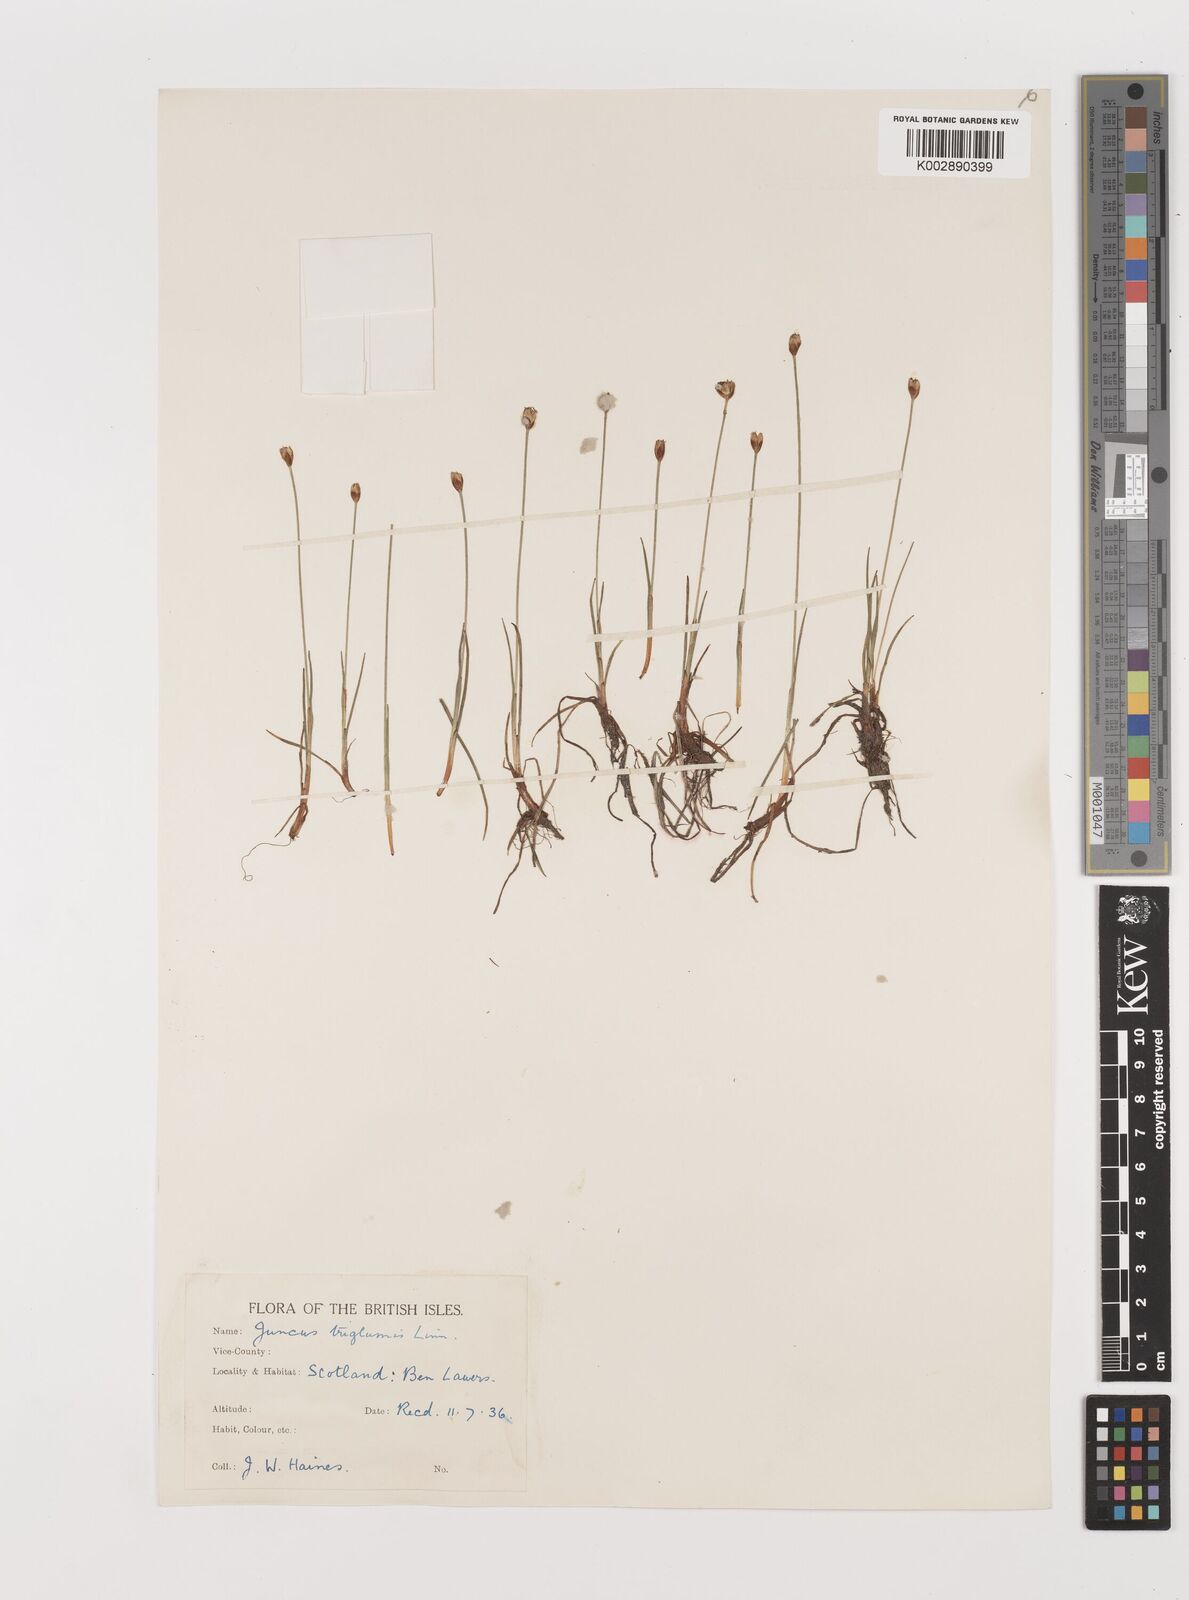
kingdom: Plantae
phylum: Tracheophyta
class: Liliopsida
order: Poales
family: Juncaceae
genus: Juncus
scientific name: Juncus triglumis
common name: Three-flowered rush
